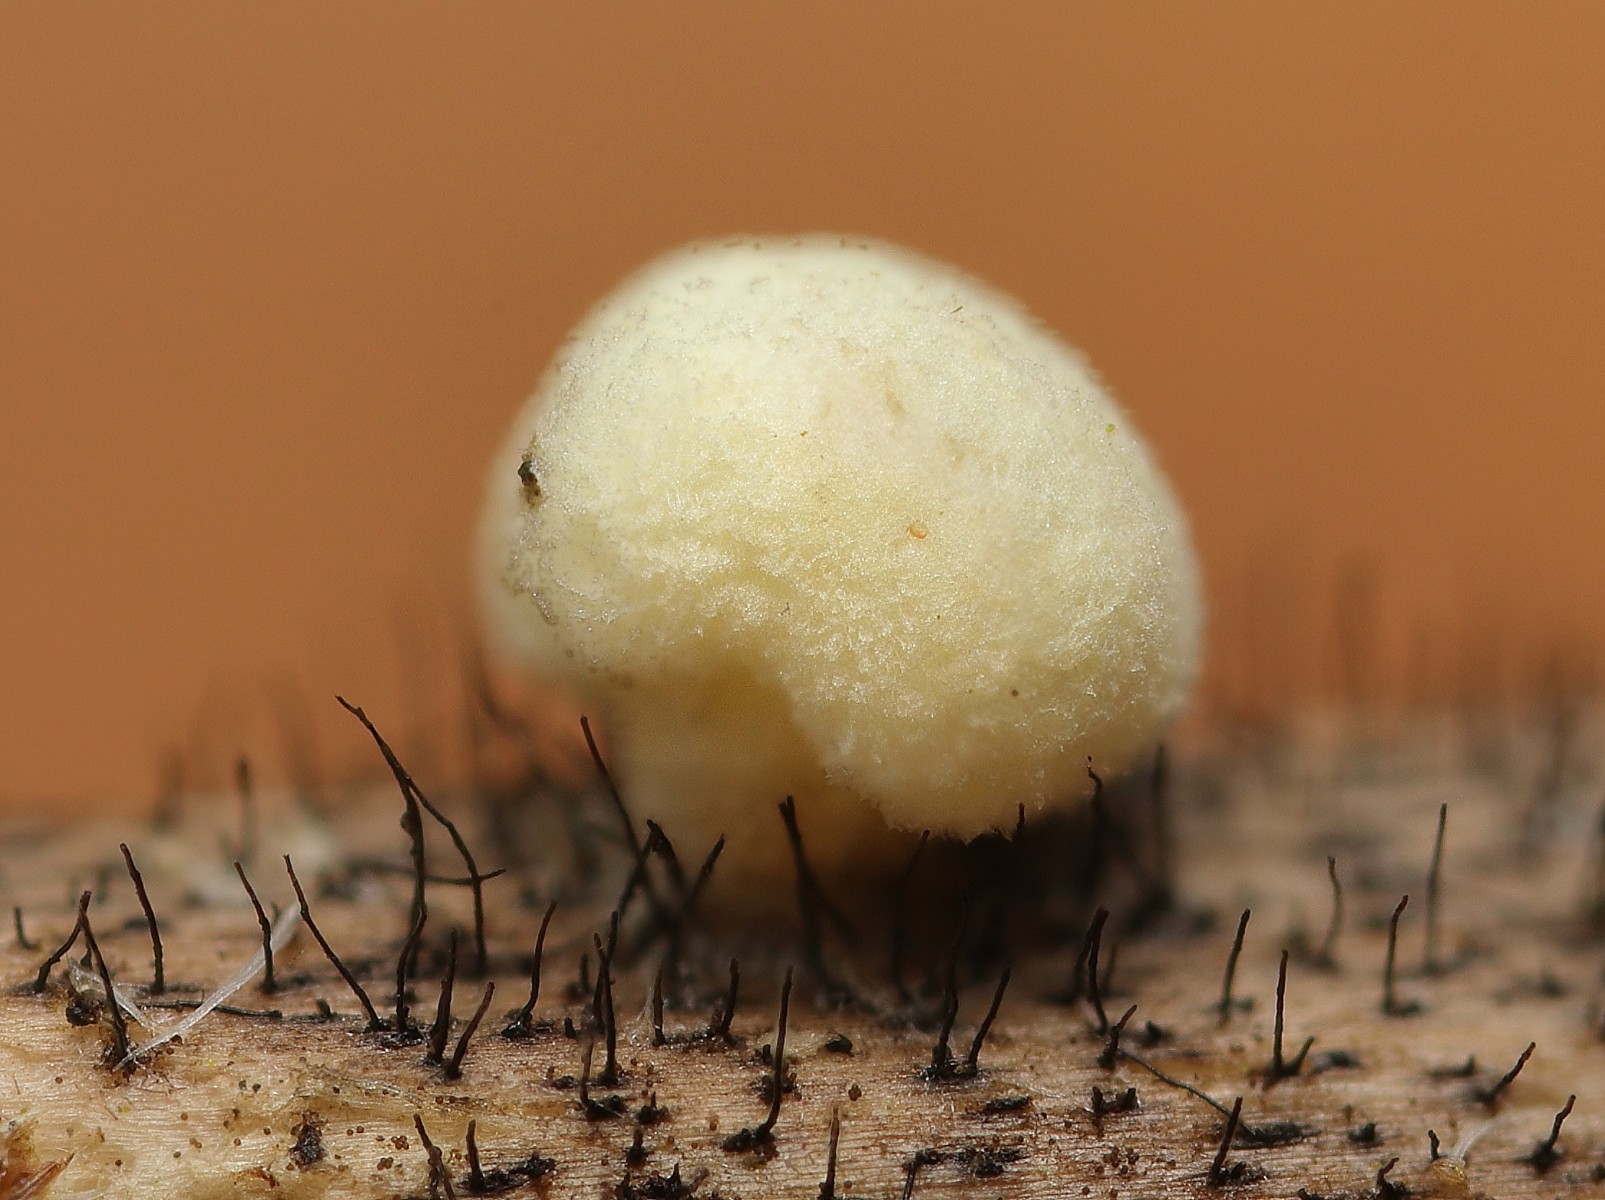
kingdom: Fungi
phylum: Basidiomycota
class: Agaricomycetes
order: Agaricales
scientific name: Agaricales
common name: champignonordenen
